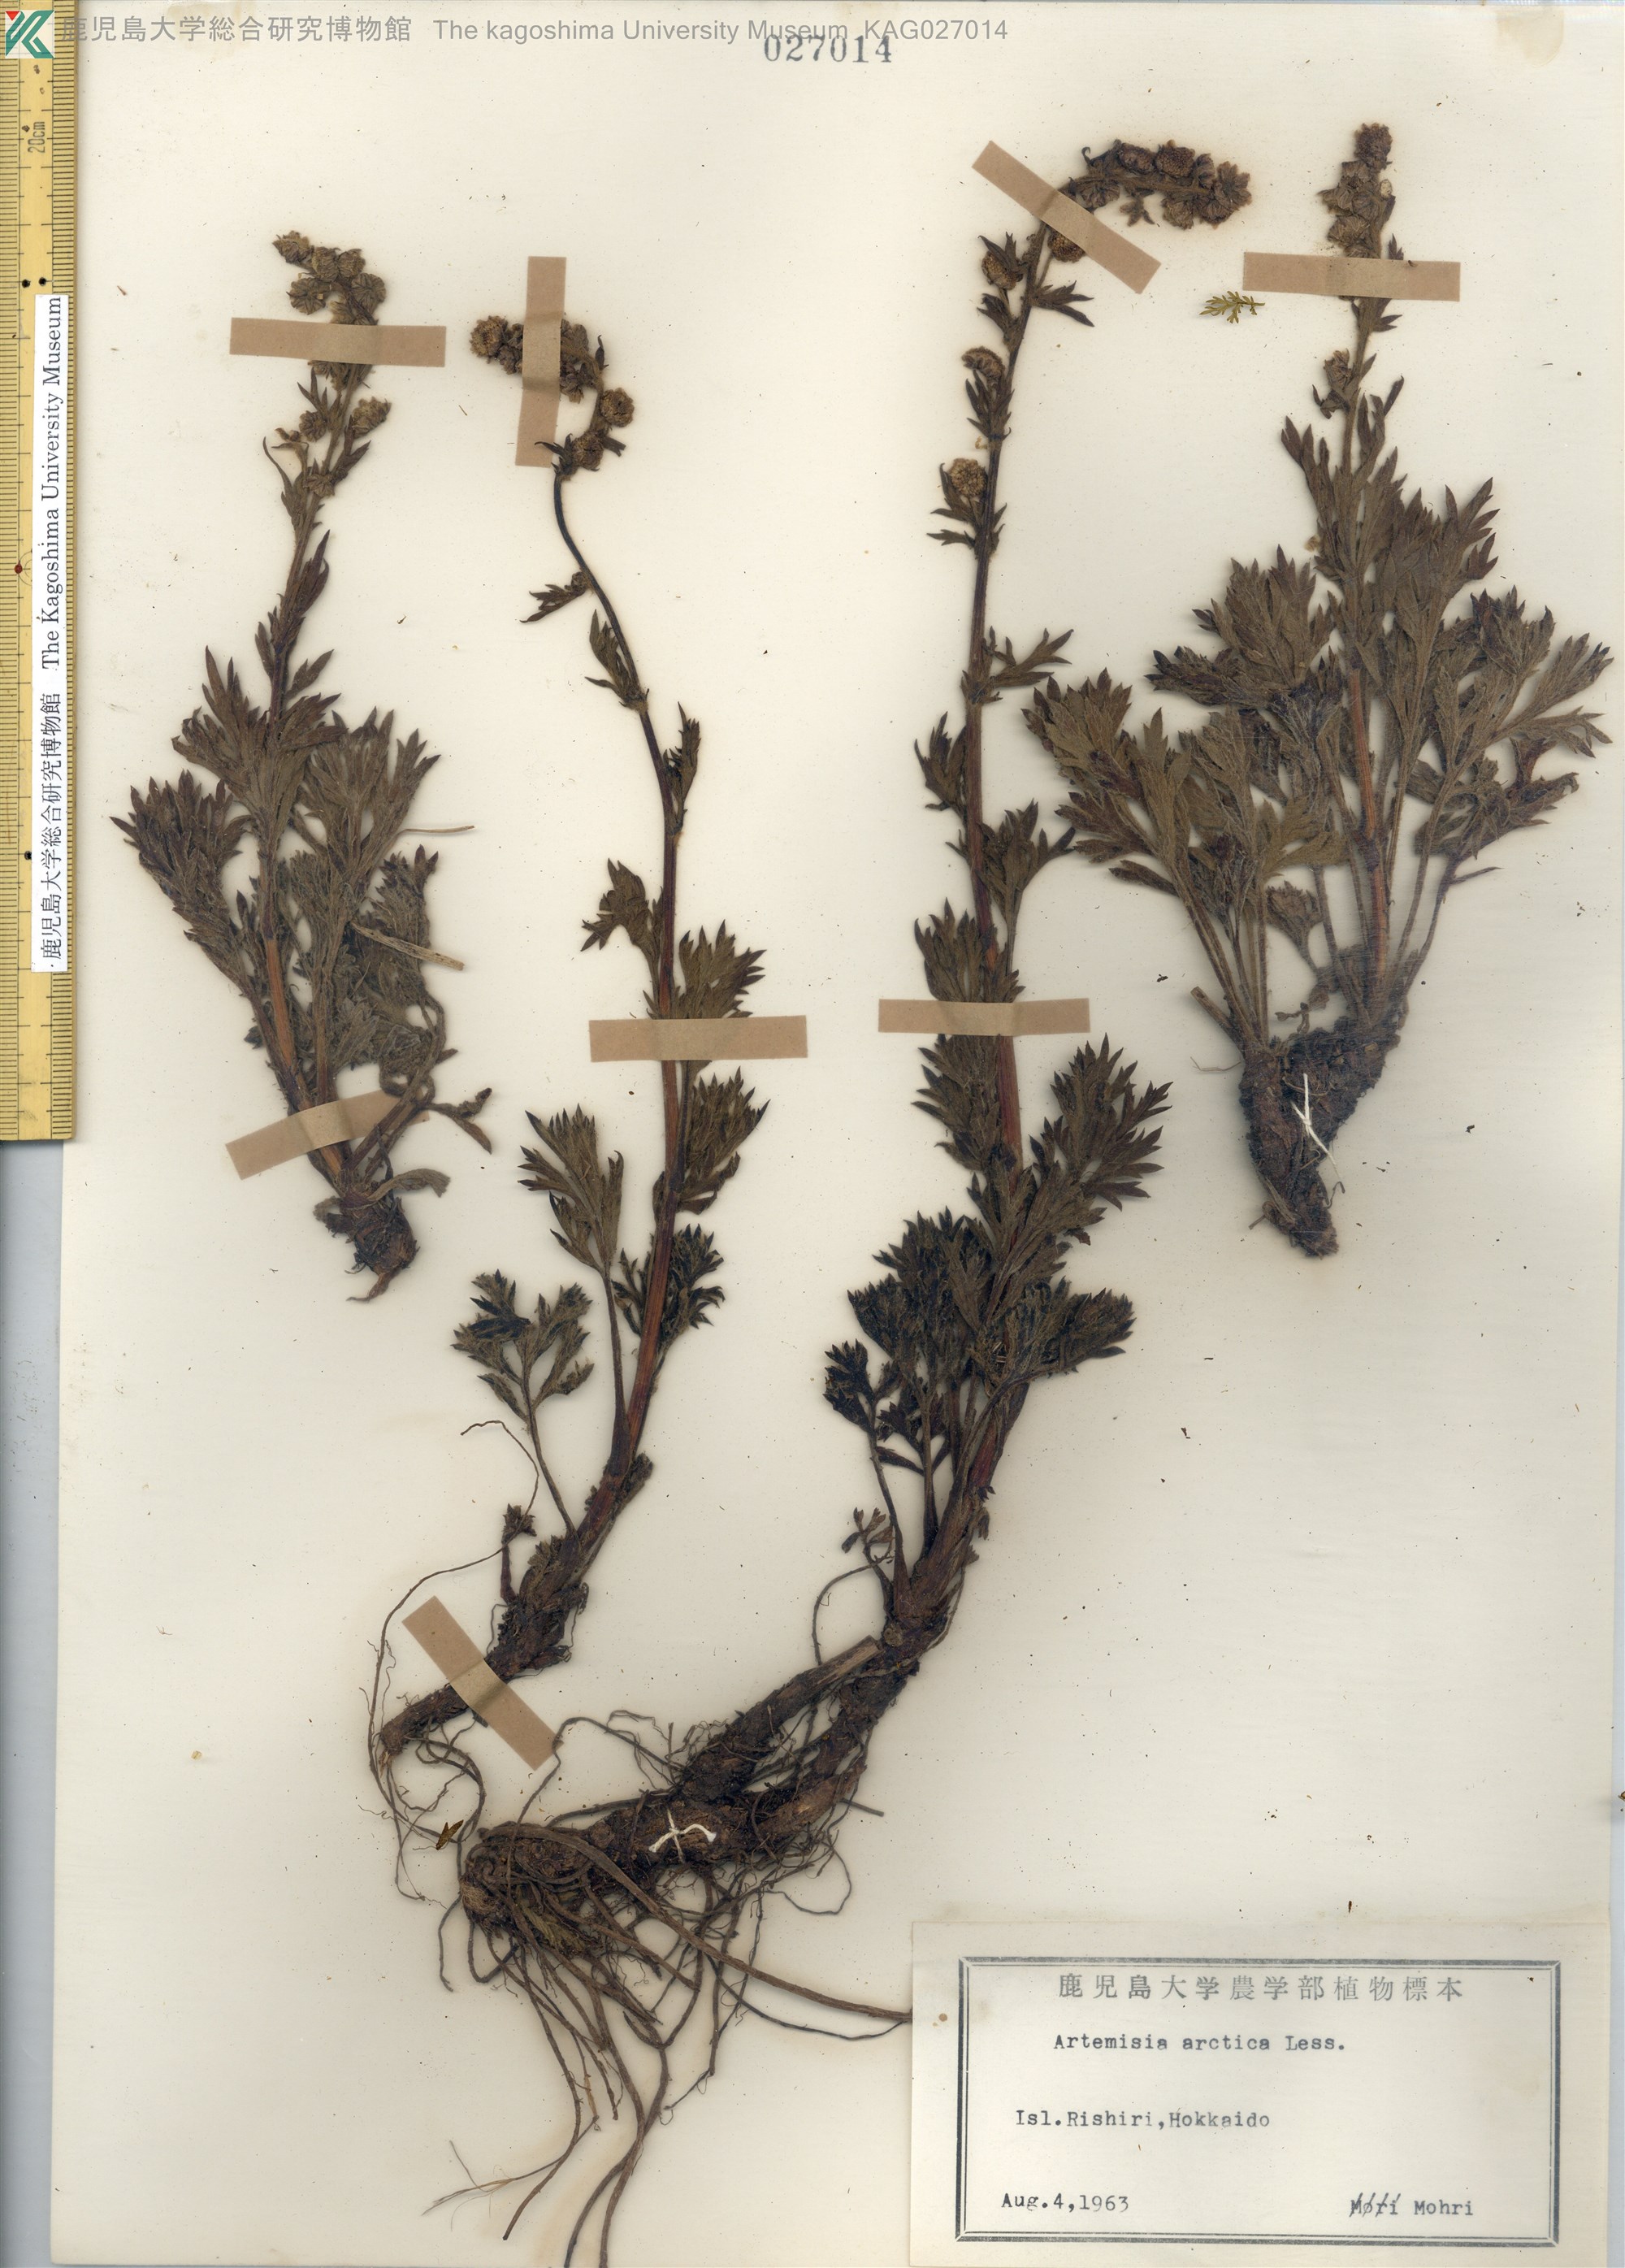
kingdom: Plantae
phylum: Tracheophyta
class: Magnoliopsida
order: Asterales
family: Asteraceae
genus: Artemisia
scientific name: Artemisia arctica
